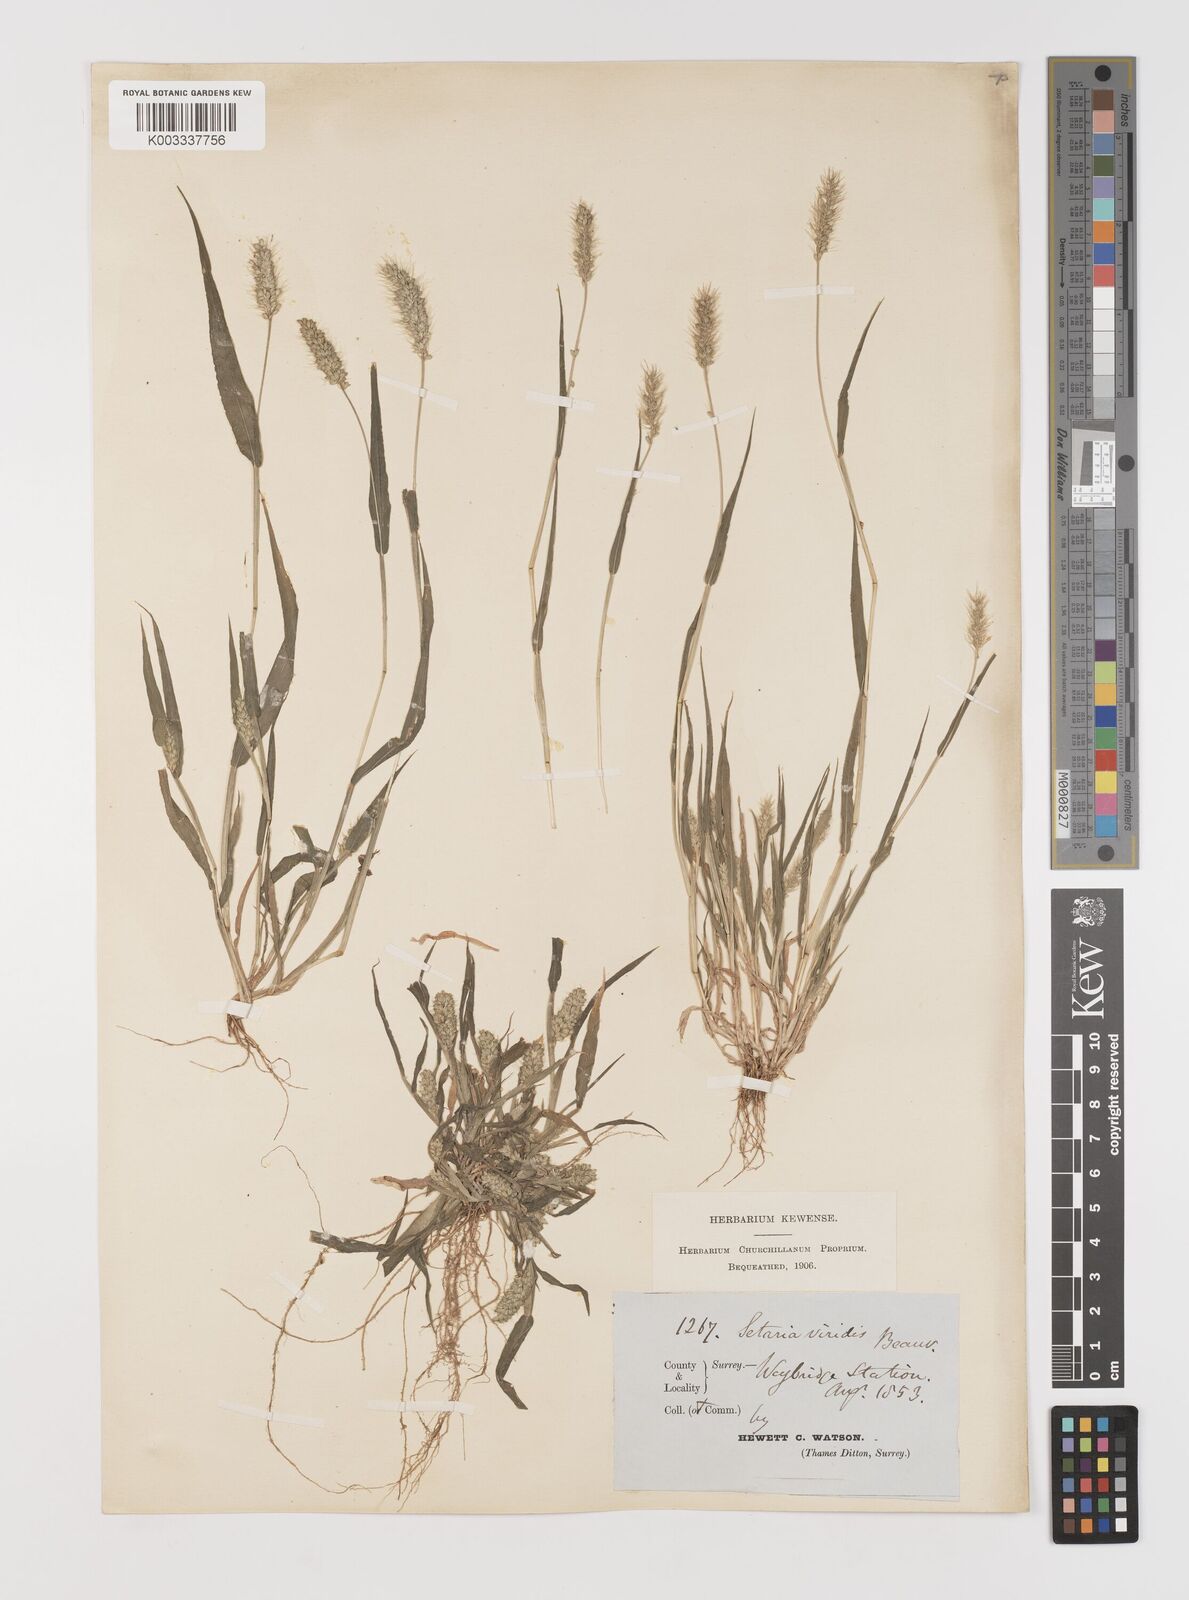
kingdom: Plantae
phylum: Tracheophyta
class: Liliopsida
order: Poales
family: Poaceae
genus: Setaria
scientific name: Setaria viridis
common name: Green bristlegrass
